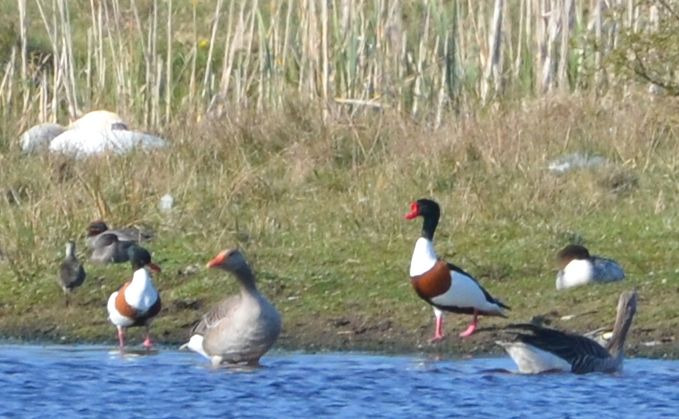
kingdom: Animalia
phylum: Chordata
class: Aves
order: Anseriformes
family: Anatidae
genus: Tadorna
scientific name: Tadorna tadorna
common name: Gravand
